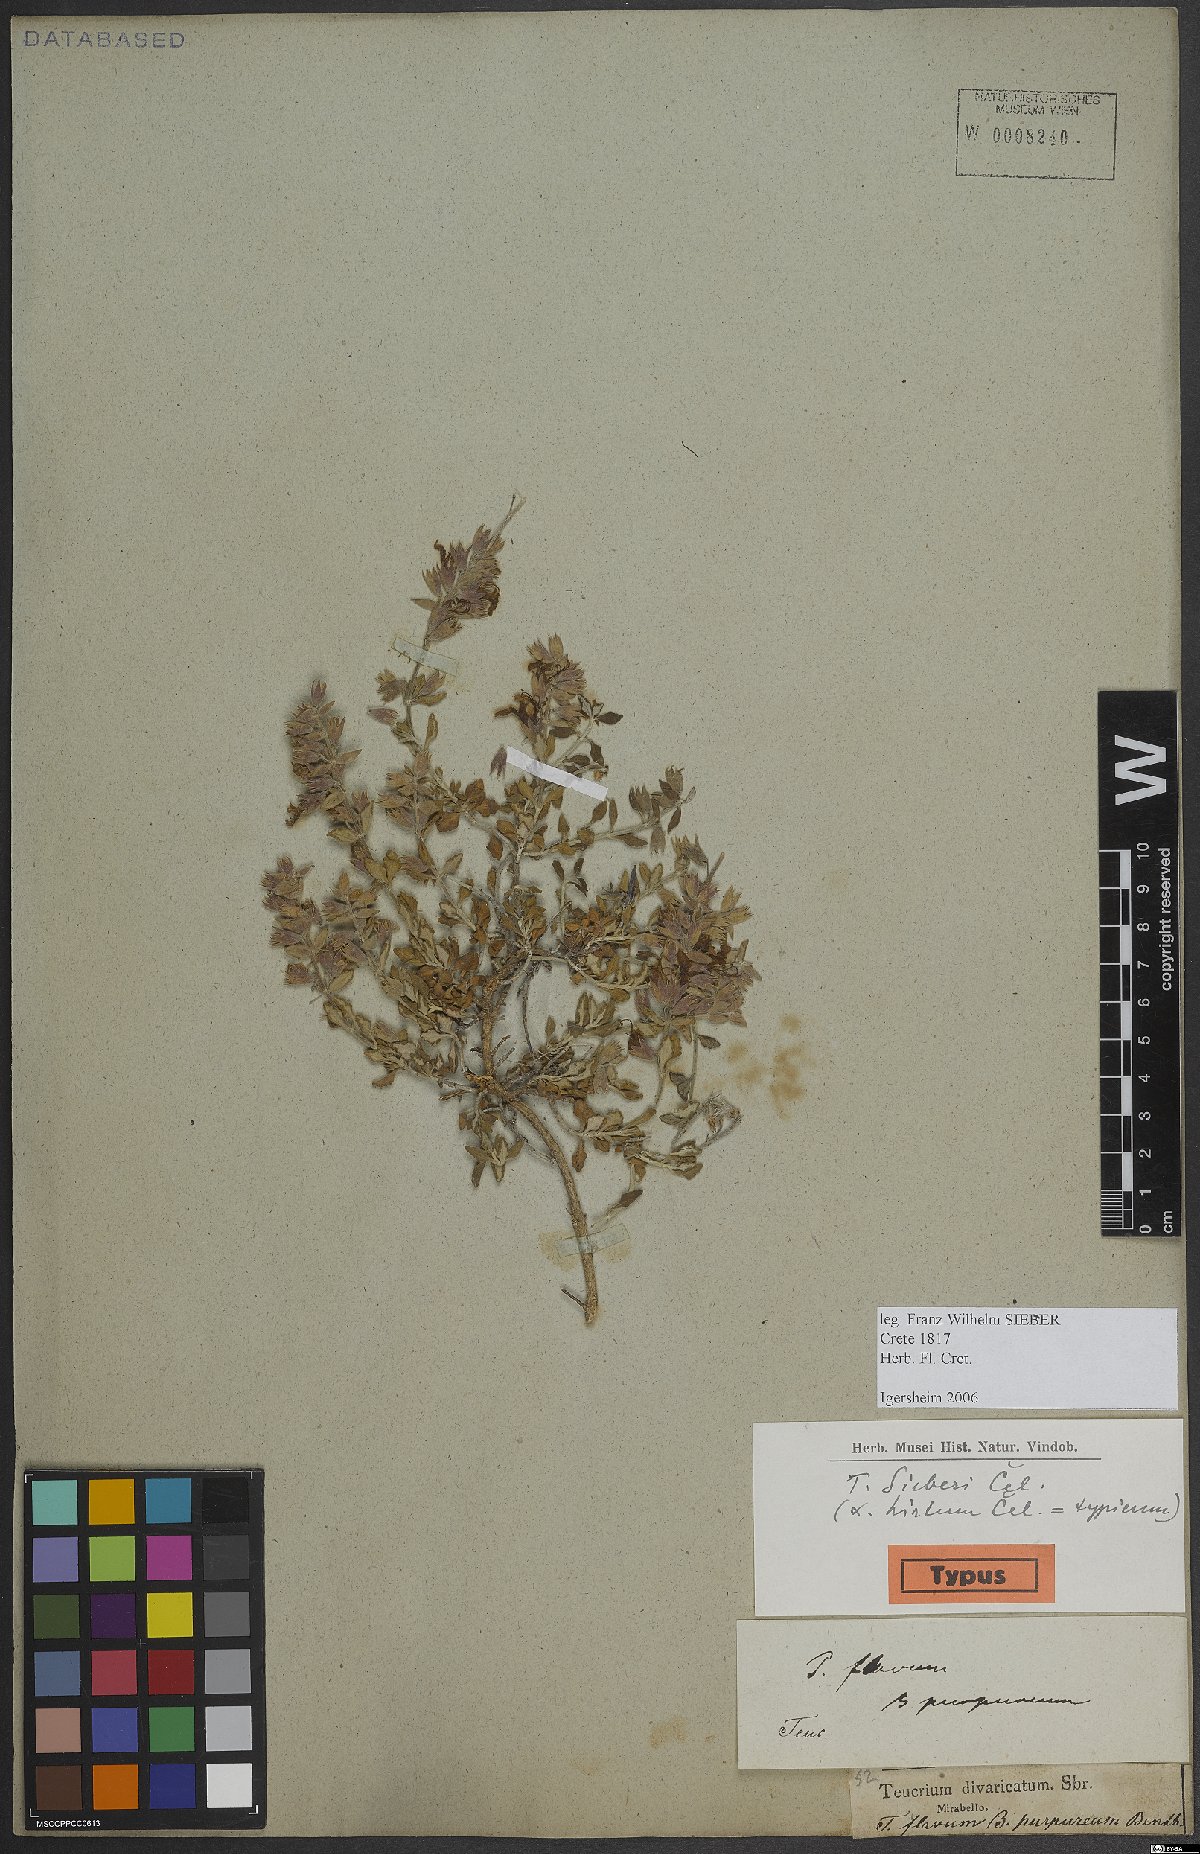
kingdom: Plantae
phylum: Tracheophyta
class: Magnoliopsida
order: Lamiales
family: Lamiaceae
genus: Teucrium
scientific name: Teucrium divaricatum
